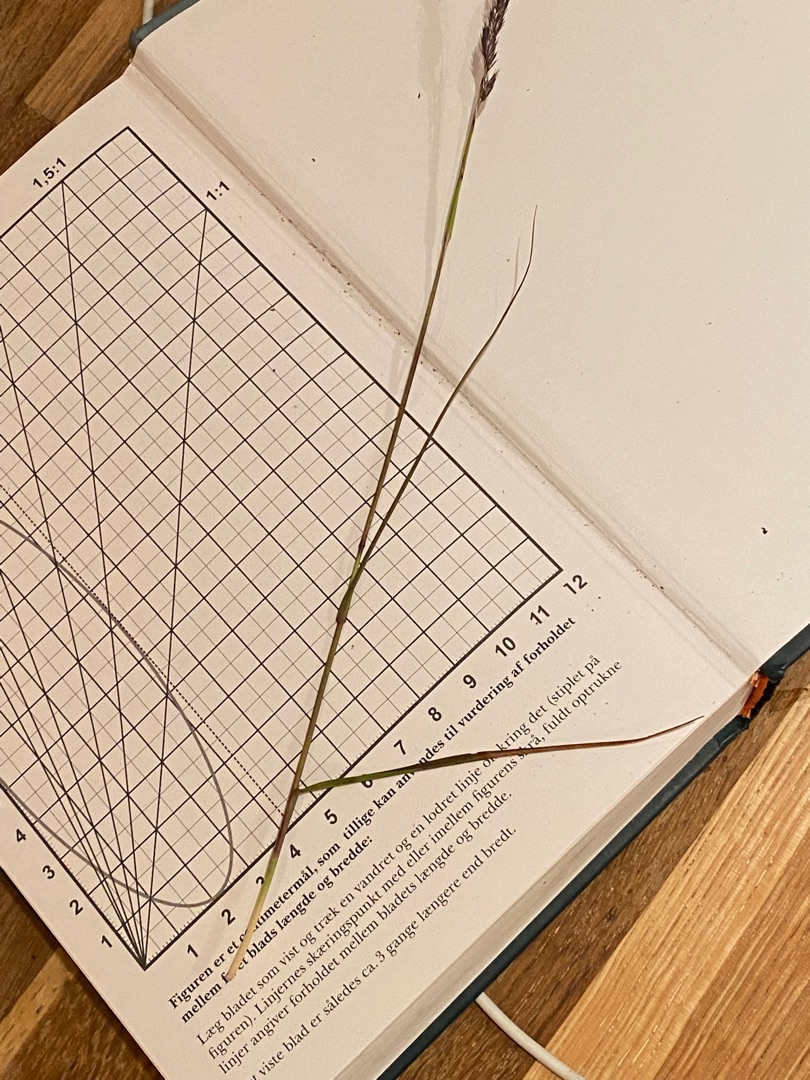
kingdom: Plantae
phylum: Tracheophyta
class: Liliopsida
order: Poales
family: Poaceae
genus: Lolium
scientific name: Lolium perenne
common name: Almindelig rajgræs
